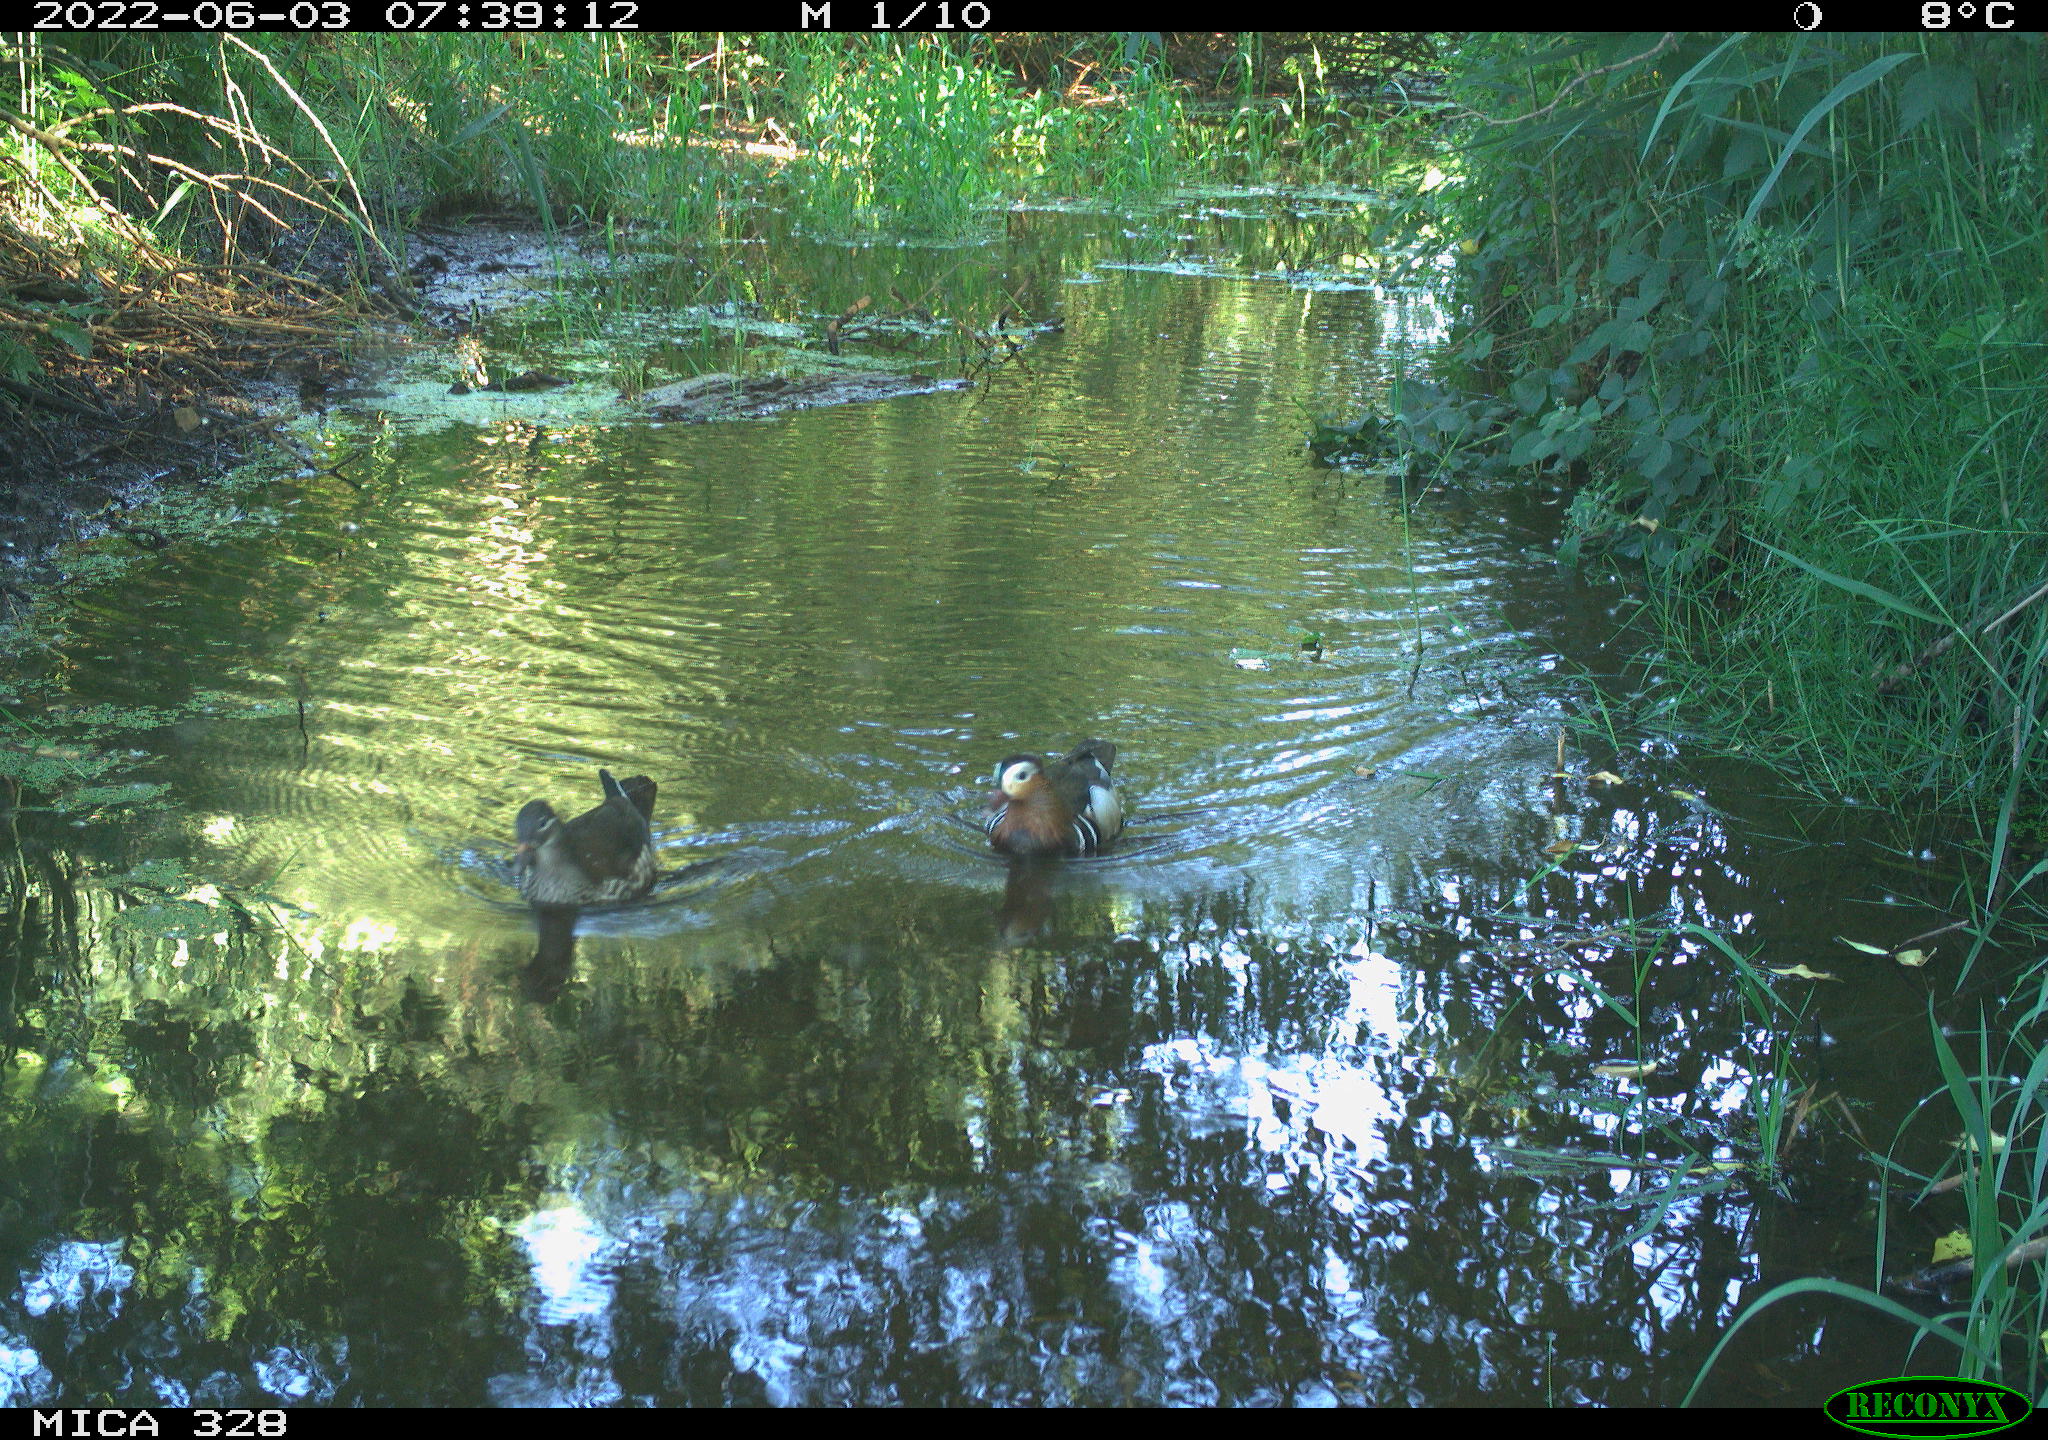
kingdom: Animalia
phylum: Chordata
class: Aves
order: Anseriformes
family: Anatidae
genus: Anas
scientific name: Anas
